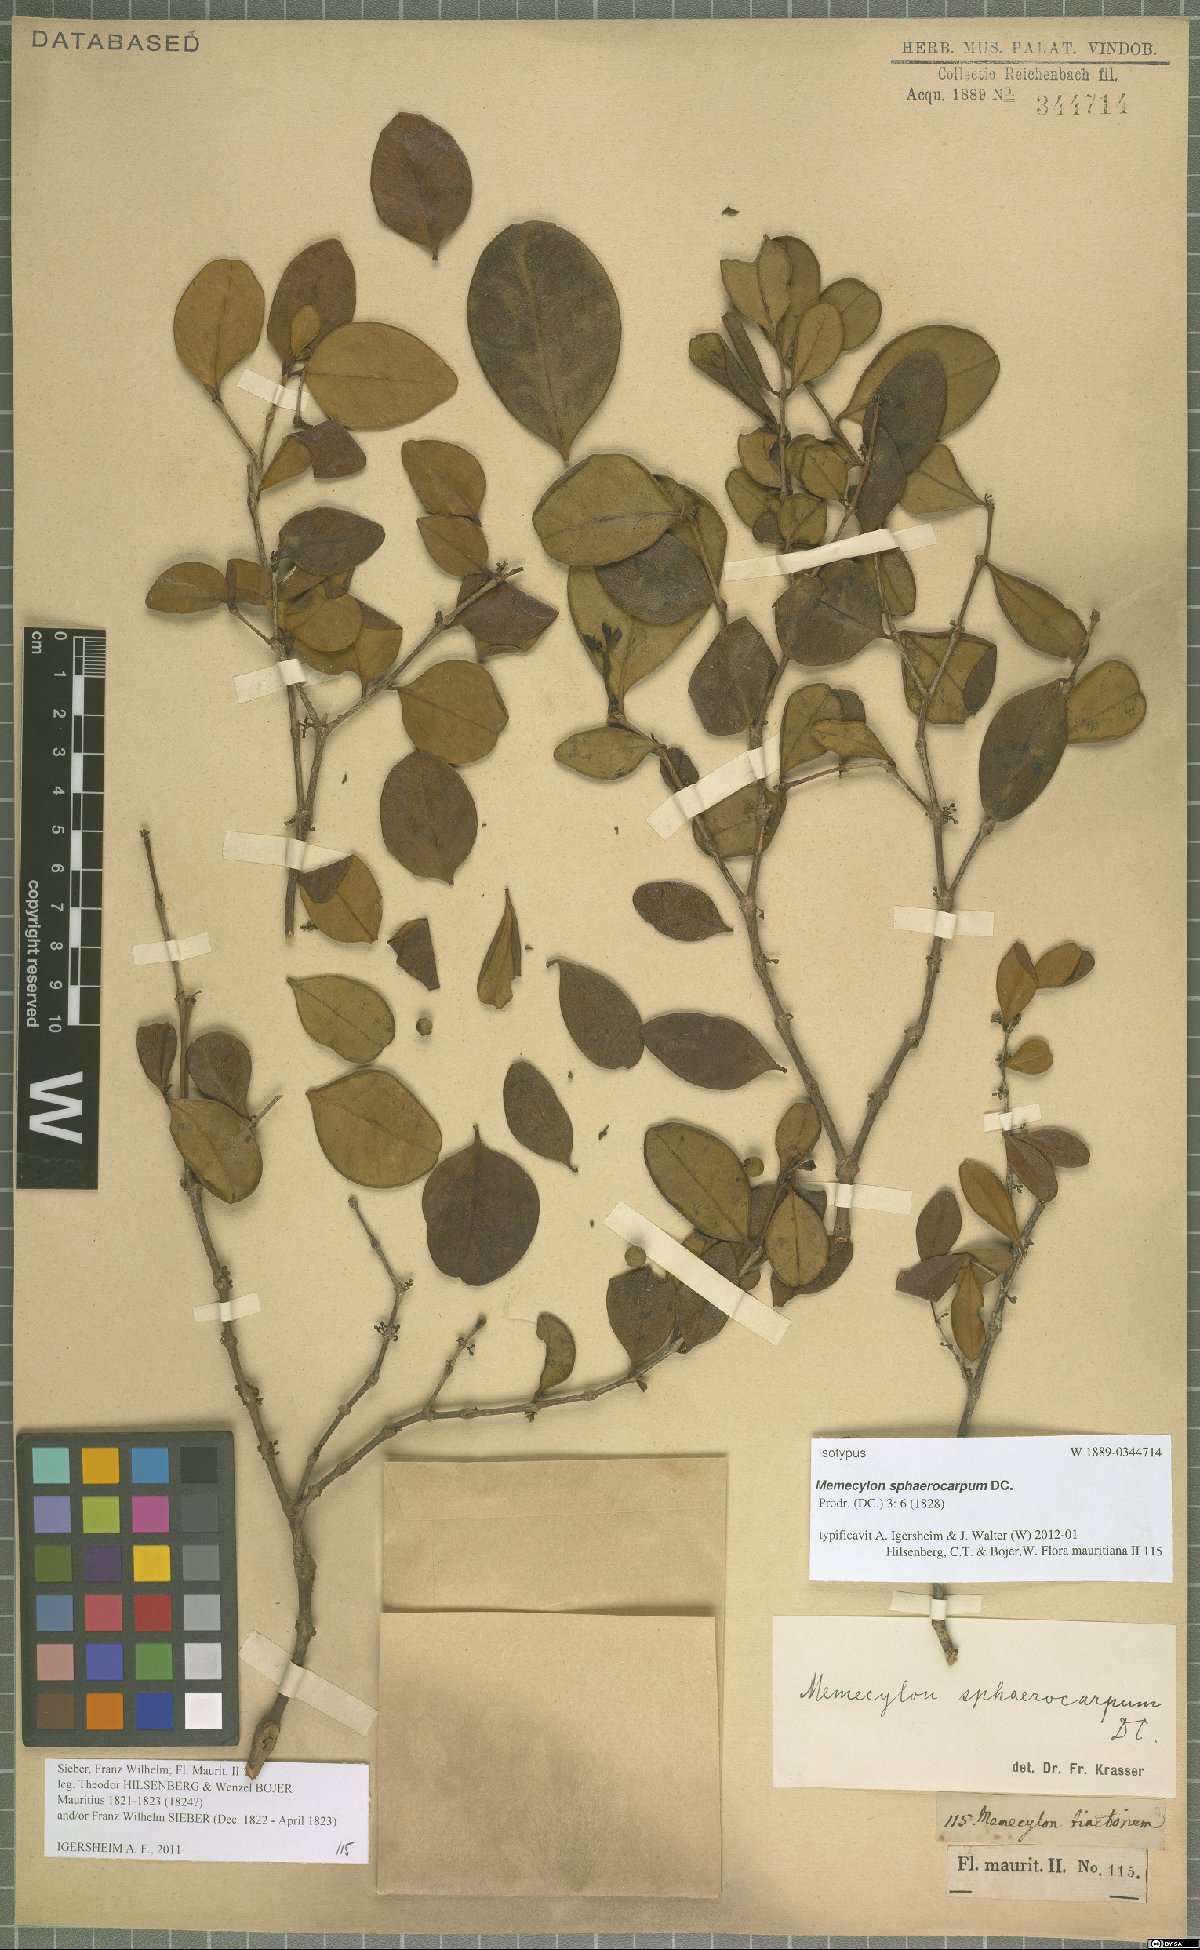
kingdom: Plantae
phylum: Tracheophyta
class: Magnoliopsida
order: Myrtales
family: Melastomataceae
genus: Memecylon
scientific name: Memecylon ovatifolium
